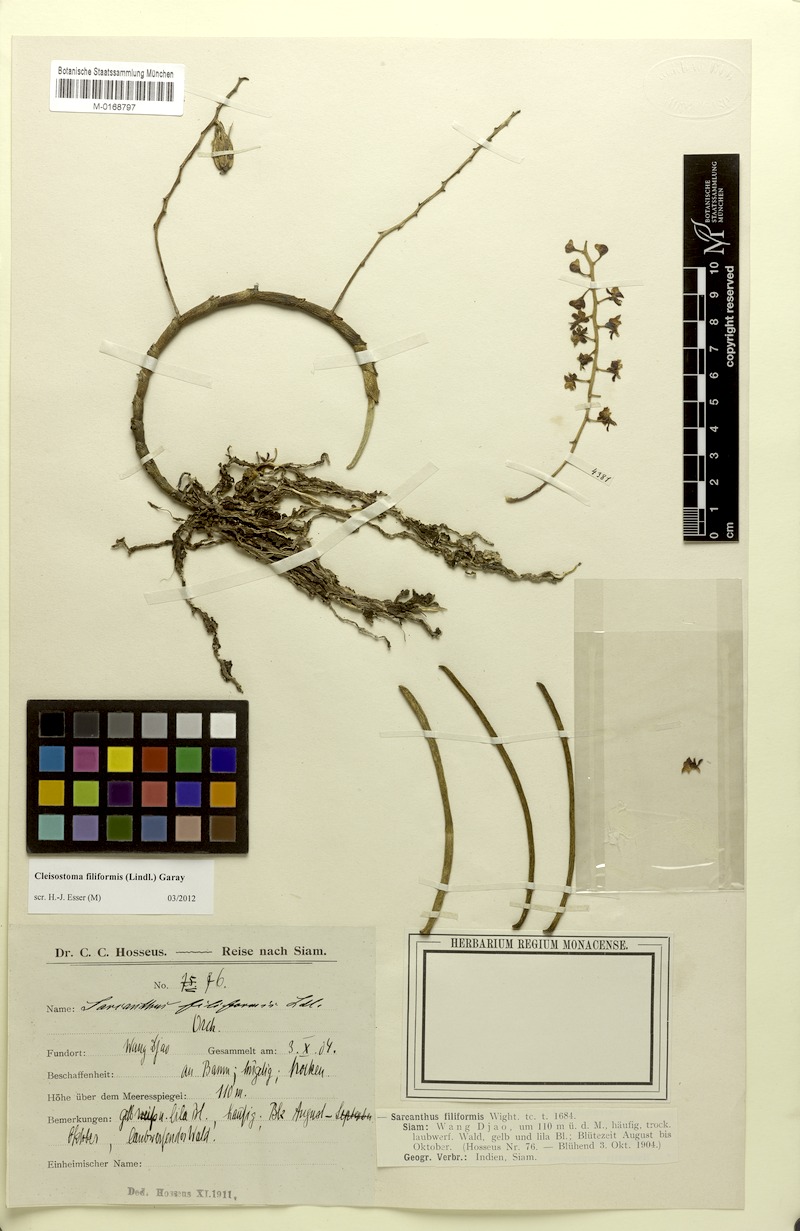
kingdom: Plantae
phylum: Tracheophyta
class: Liliopsida
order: Asparagales
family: Orchidaceae
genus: Cleisostoma
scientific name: Cleisostoma filiforme
